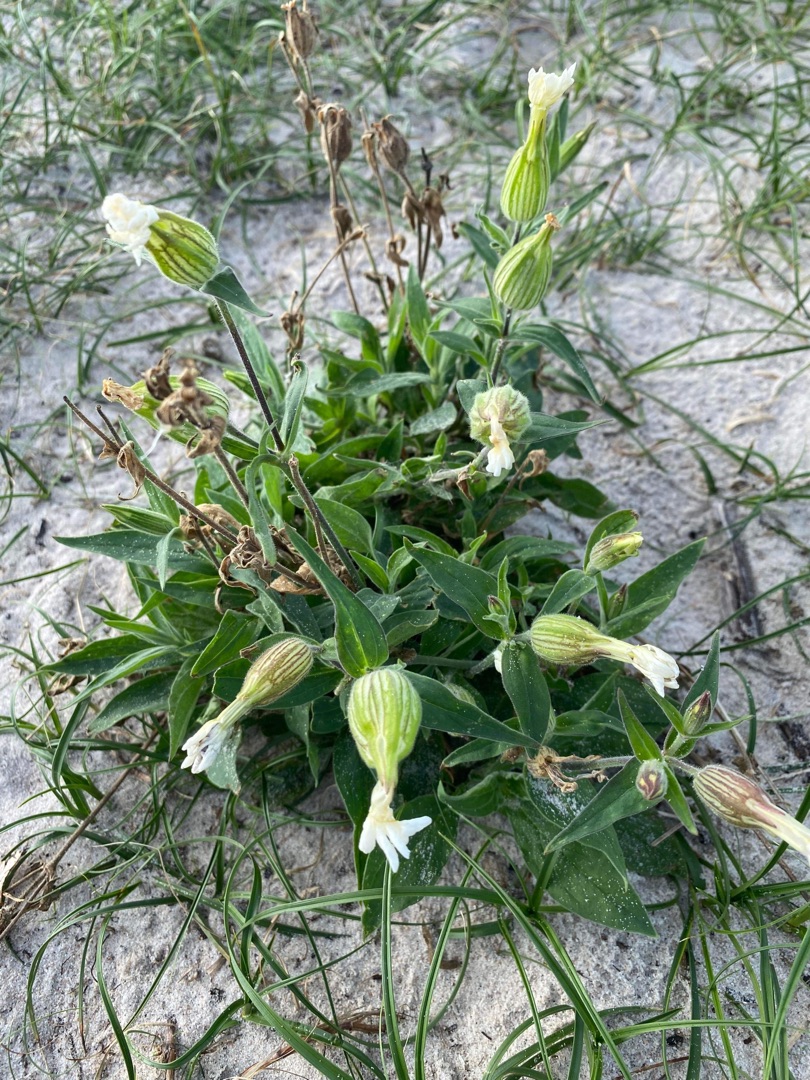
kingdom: Plantae
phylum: Tracheophyta
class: Magnoliopsida
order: Caryophyllales
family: Caryophyllaceae
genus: Silene
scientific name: Silene latifolia
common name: Aftenpragtstjerne
